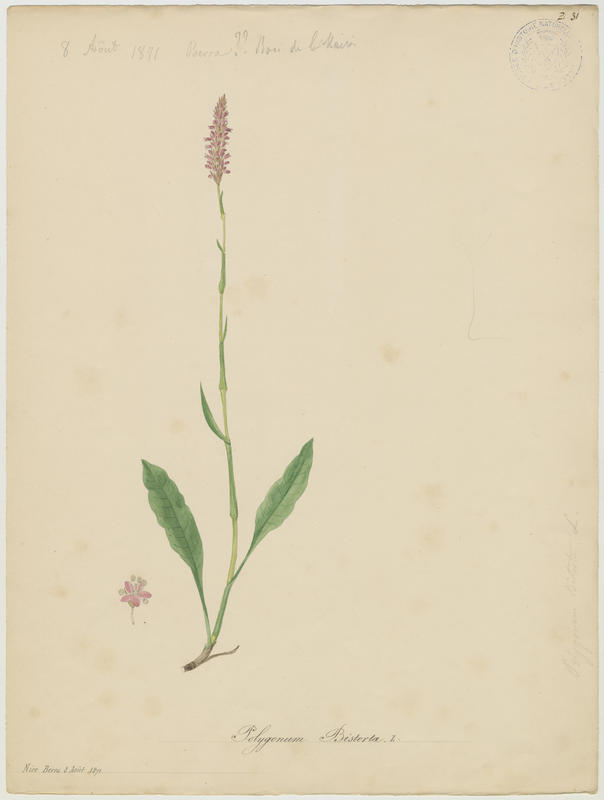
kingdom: Plantae
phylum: Tracheophyta
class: Magnoliopsida
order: Caryophyllales
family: Polygonaceae
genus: Bistorta
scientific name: Bistorta officinalis
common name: Common bistort
